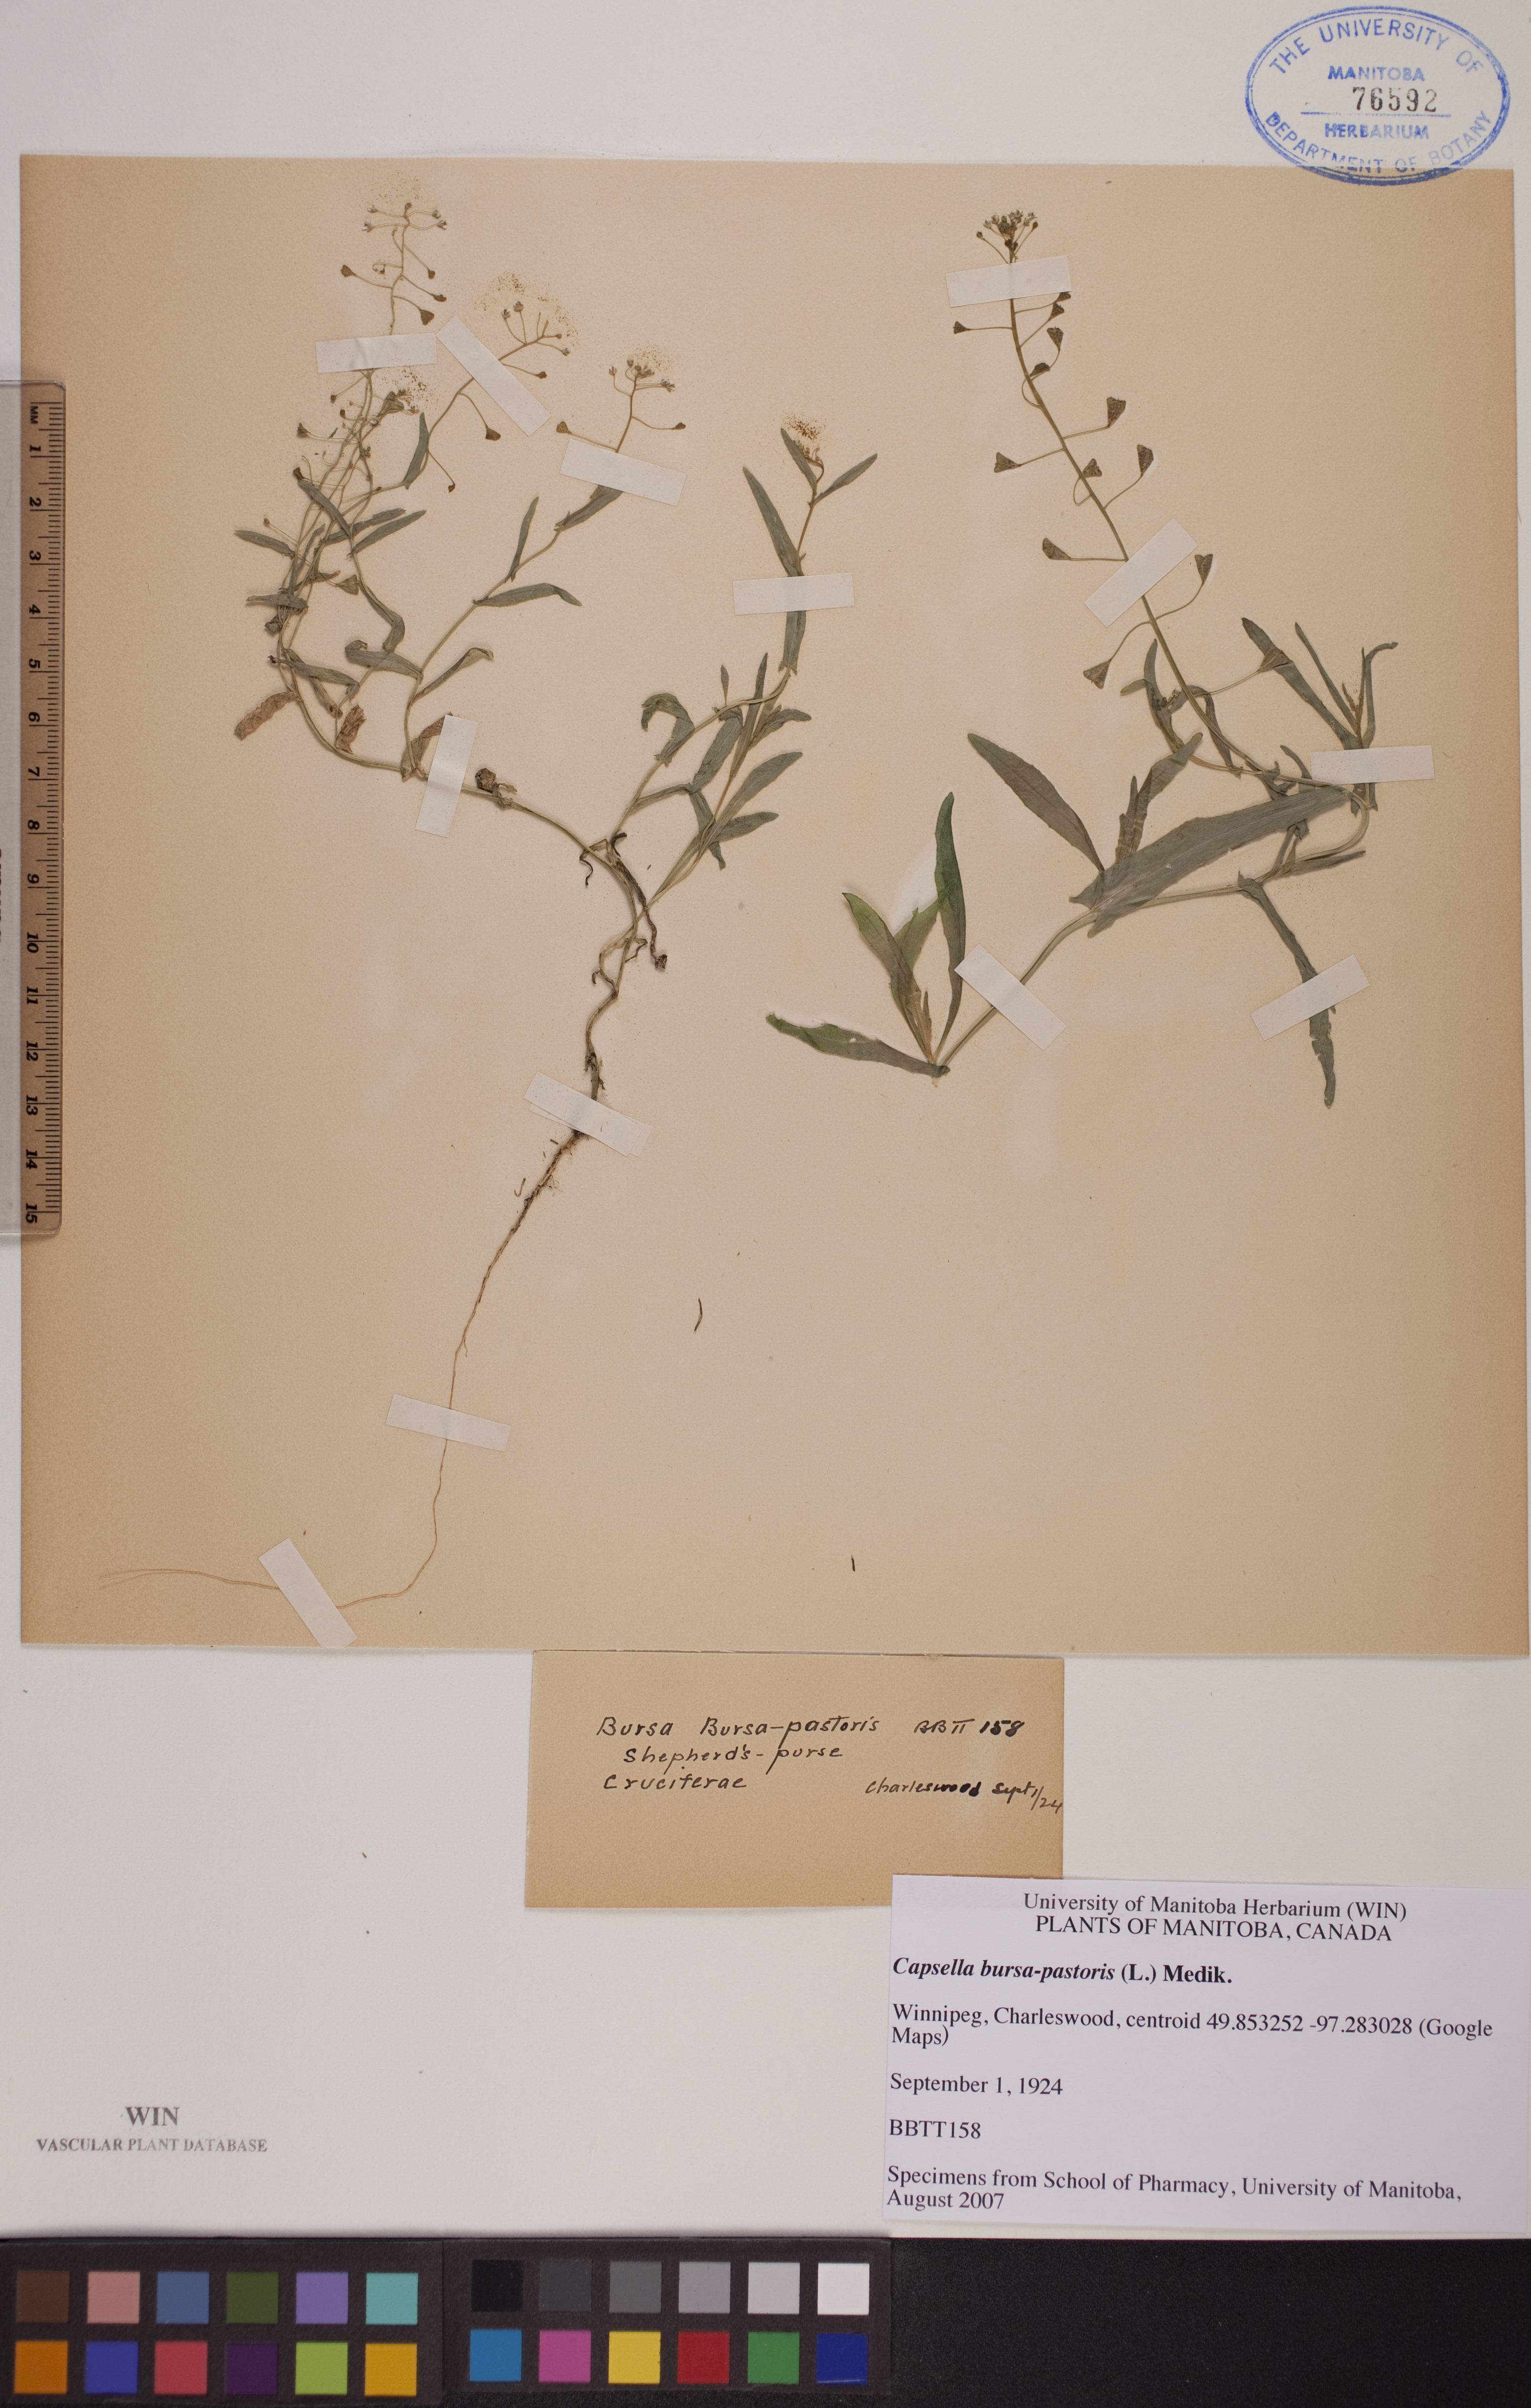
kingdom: Plantae
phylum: Tracheophyta
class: Magnoliopsida
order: Brassicales
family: Brassicaceae
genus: Capsella
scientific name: Capsella bursa-pastoris
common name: Shepherd's purse
